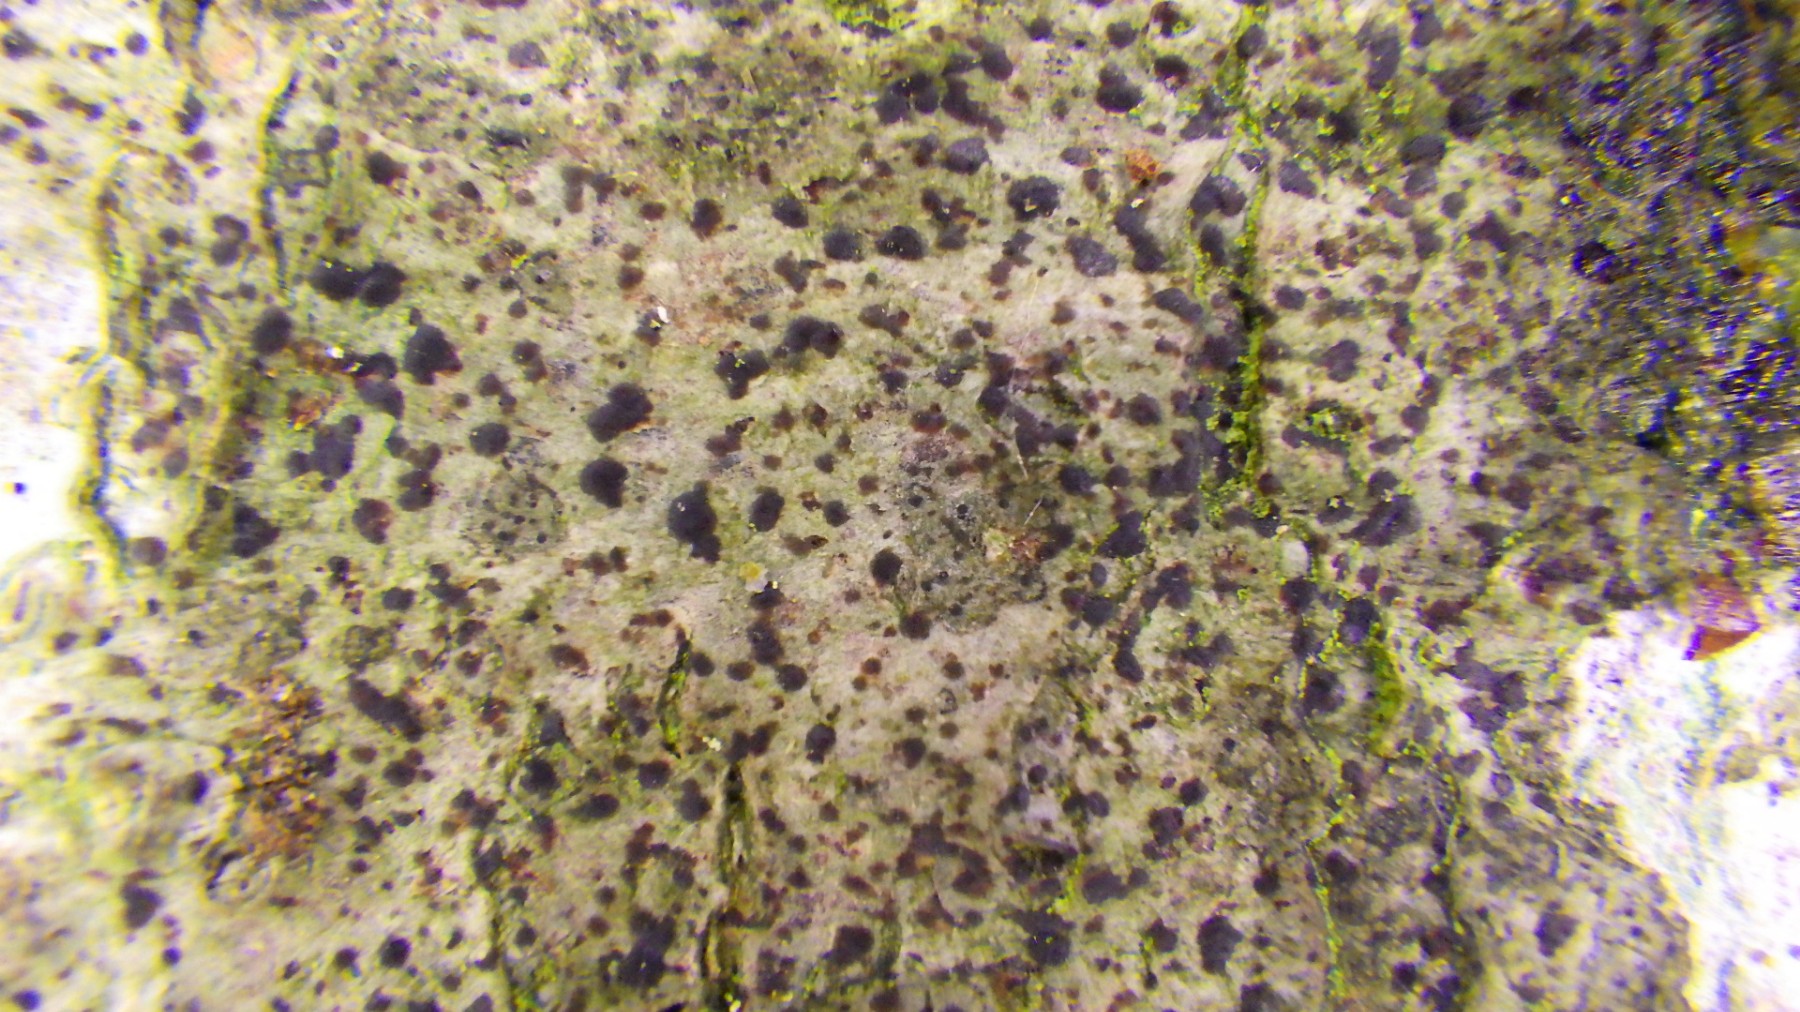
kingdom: Fungi
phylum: Ascomycota
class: Arthoniomycetes
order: Arthoniales
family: Arthoniaceae
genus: Diarthonis
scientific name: Diarthonis spadicea
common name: skygge-pletlav
